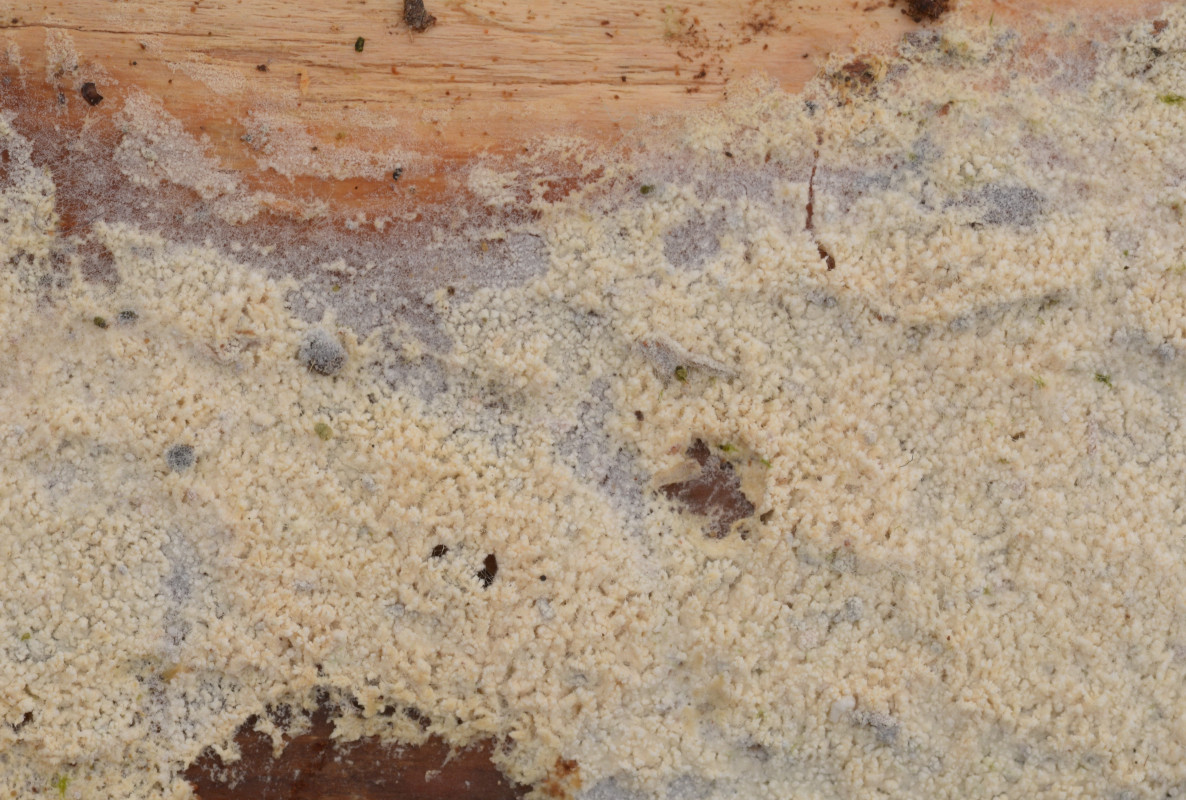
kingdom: Fungi
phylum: Basidiomycota
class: Agaricomycetes
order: Trechisporales
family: Sistotremataceae
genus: Trechispora
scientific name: Trechispora farinacea
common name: pigget vathinde
